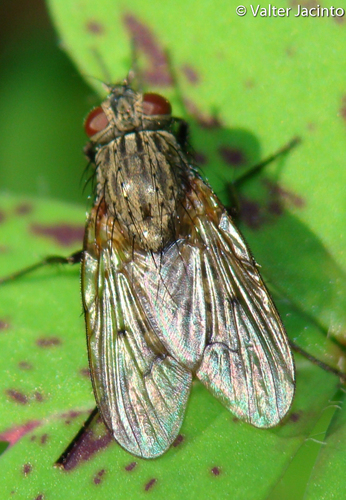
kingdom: Animalia
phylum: Arthropoda
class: Insecta
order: Diptera
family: Muscidae
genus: Helina
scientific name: Helina evecta
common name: Muscid fly
